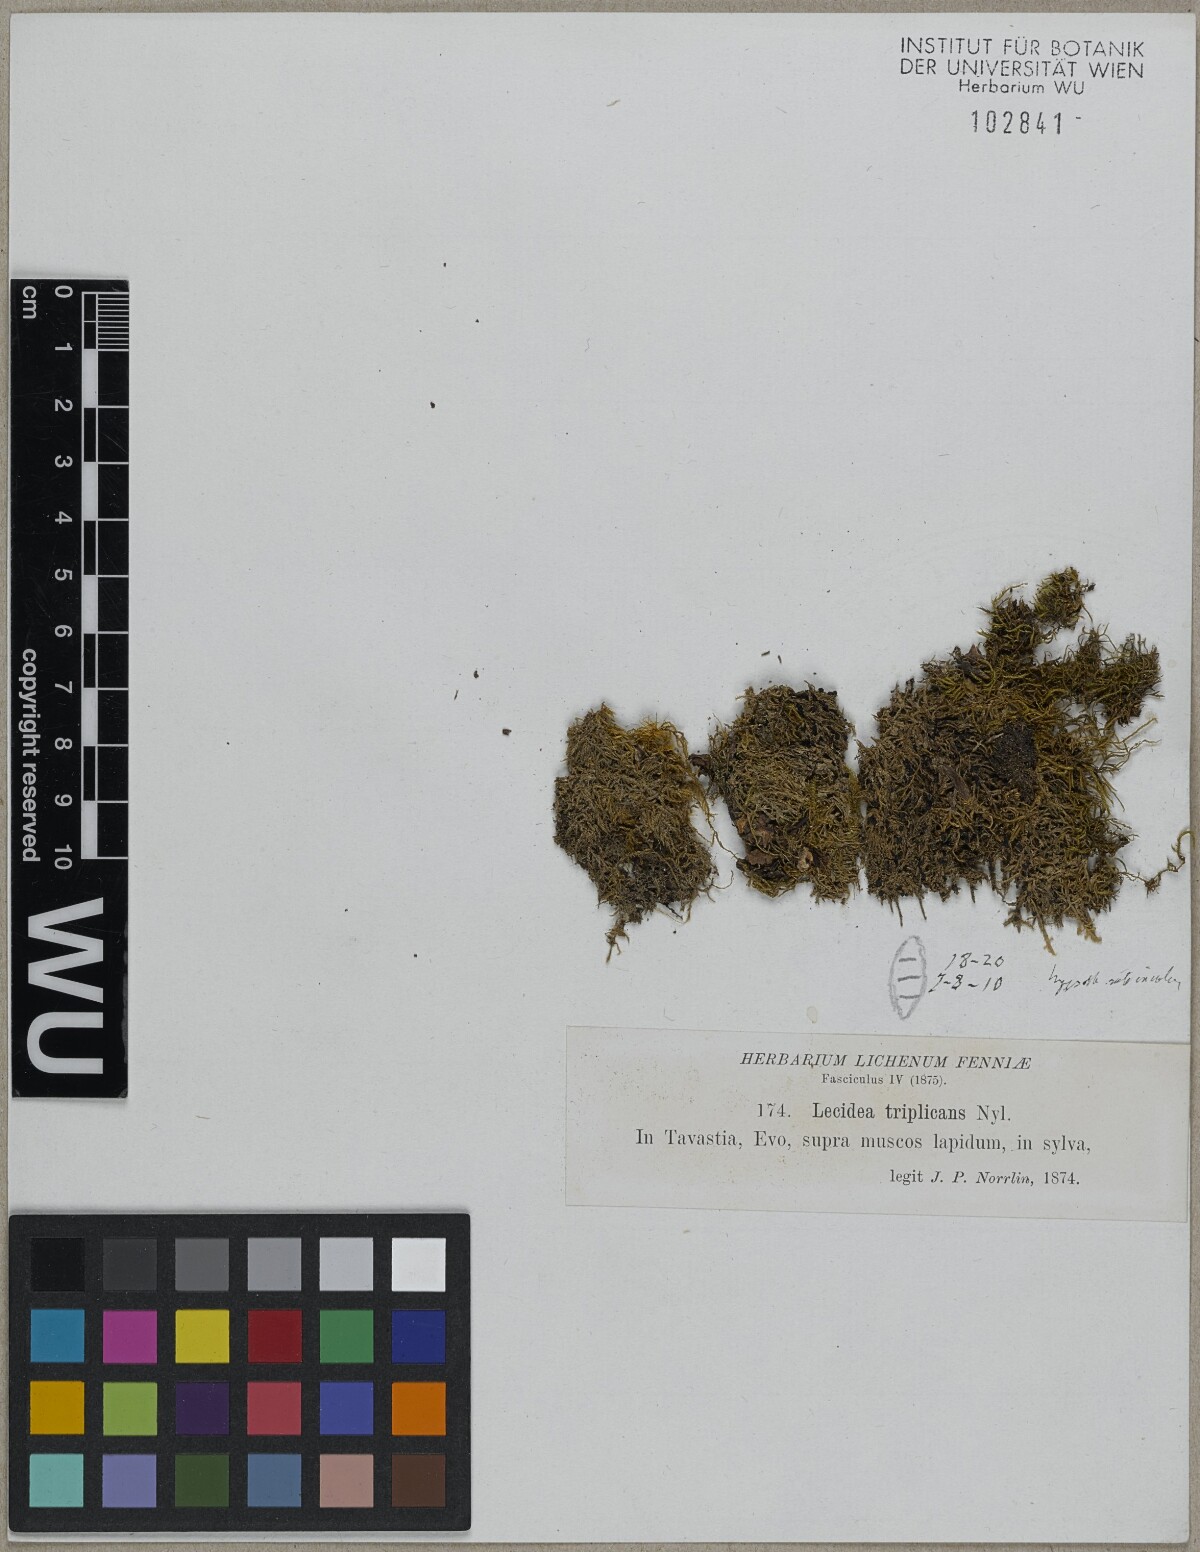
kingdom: Fungi
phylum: Ascomycota
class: Lecanoromycetes
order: Lecanorales
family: Ramalinaceae
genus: Bilimbia
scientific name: Bilimbia tetramera
